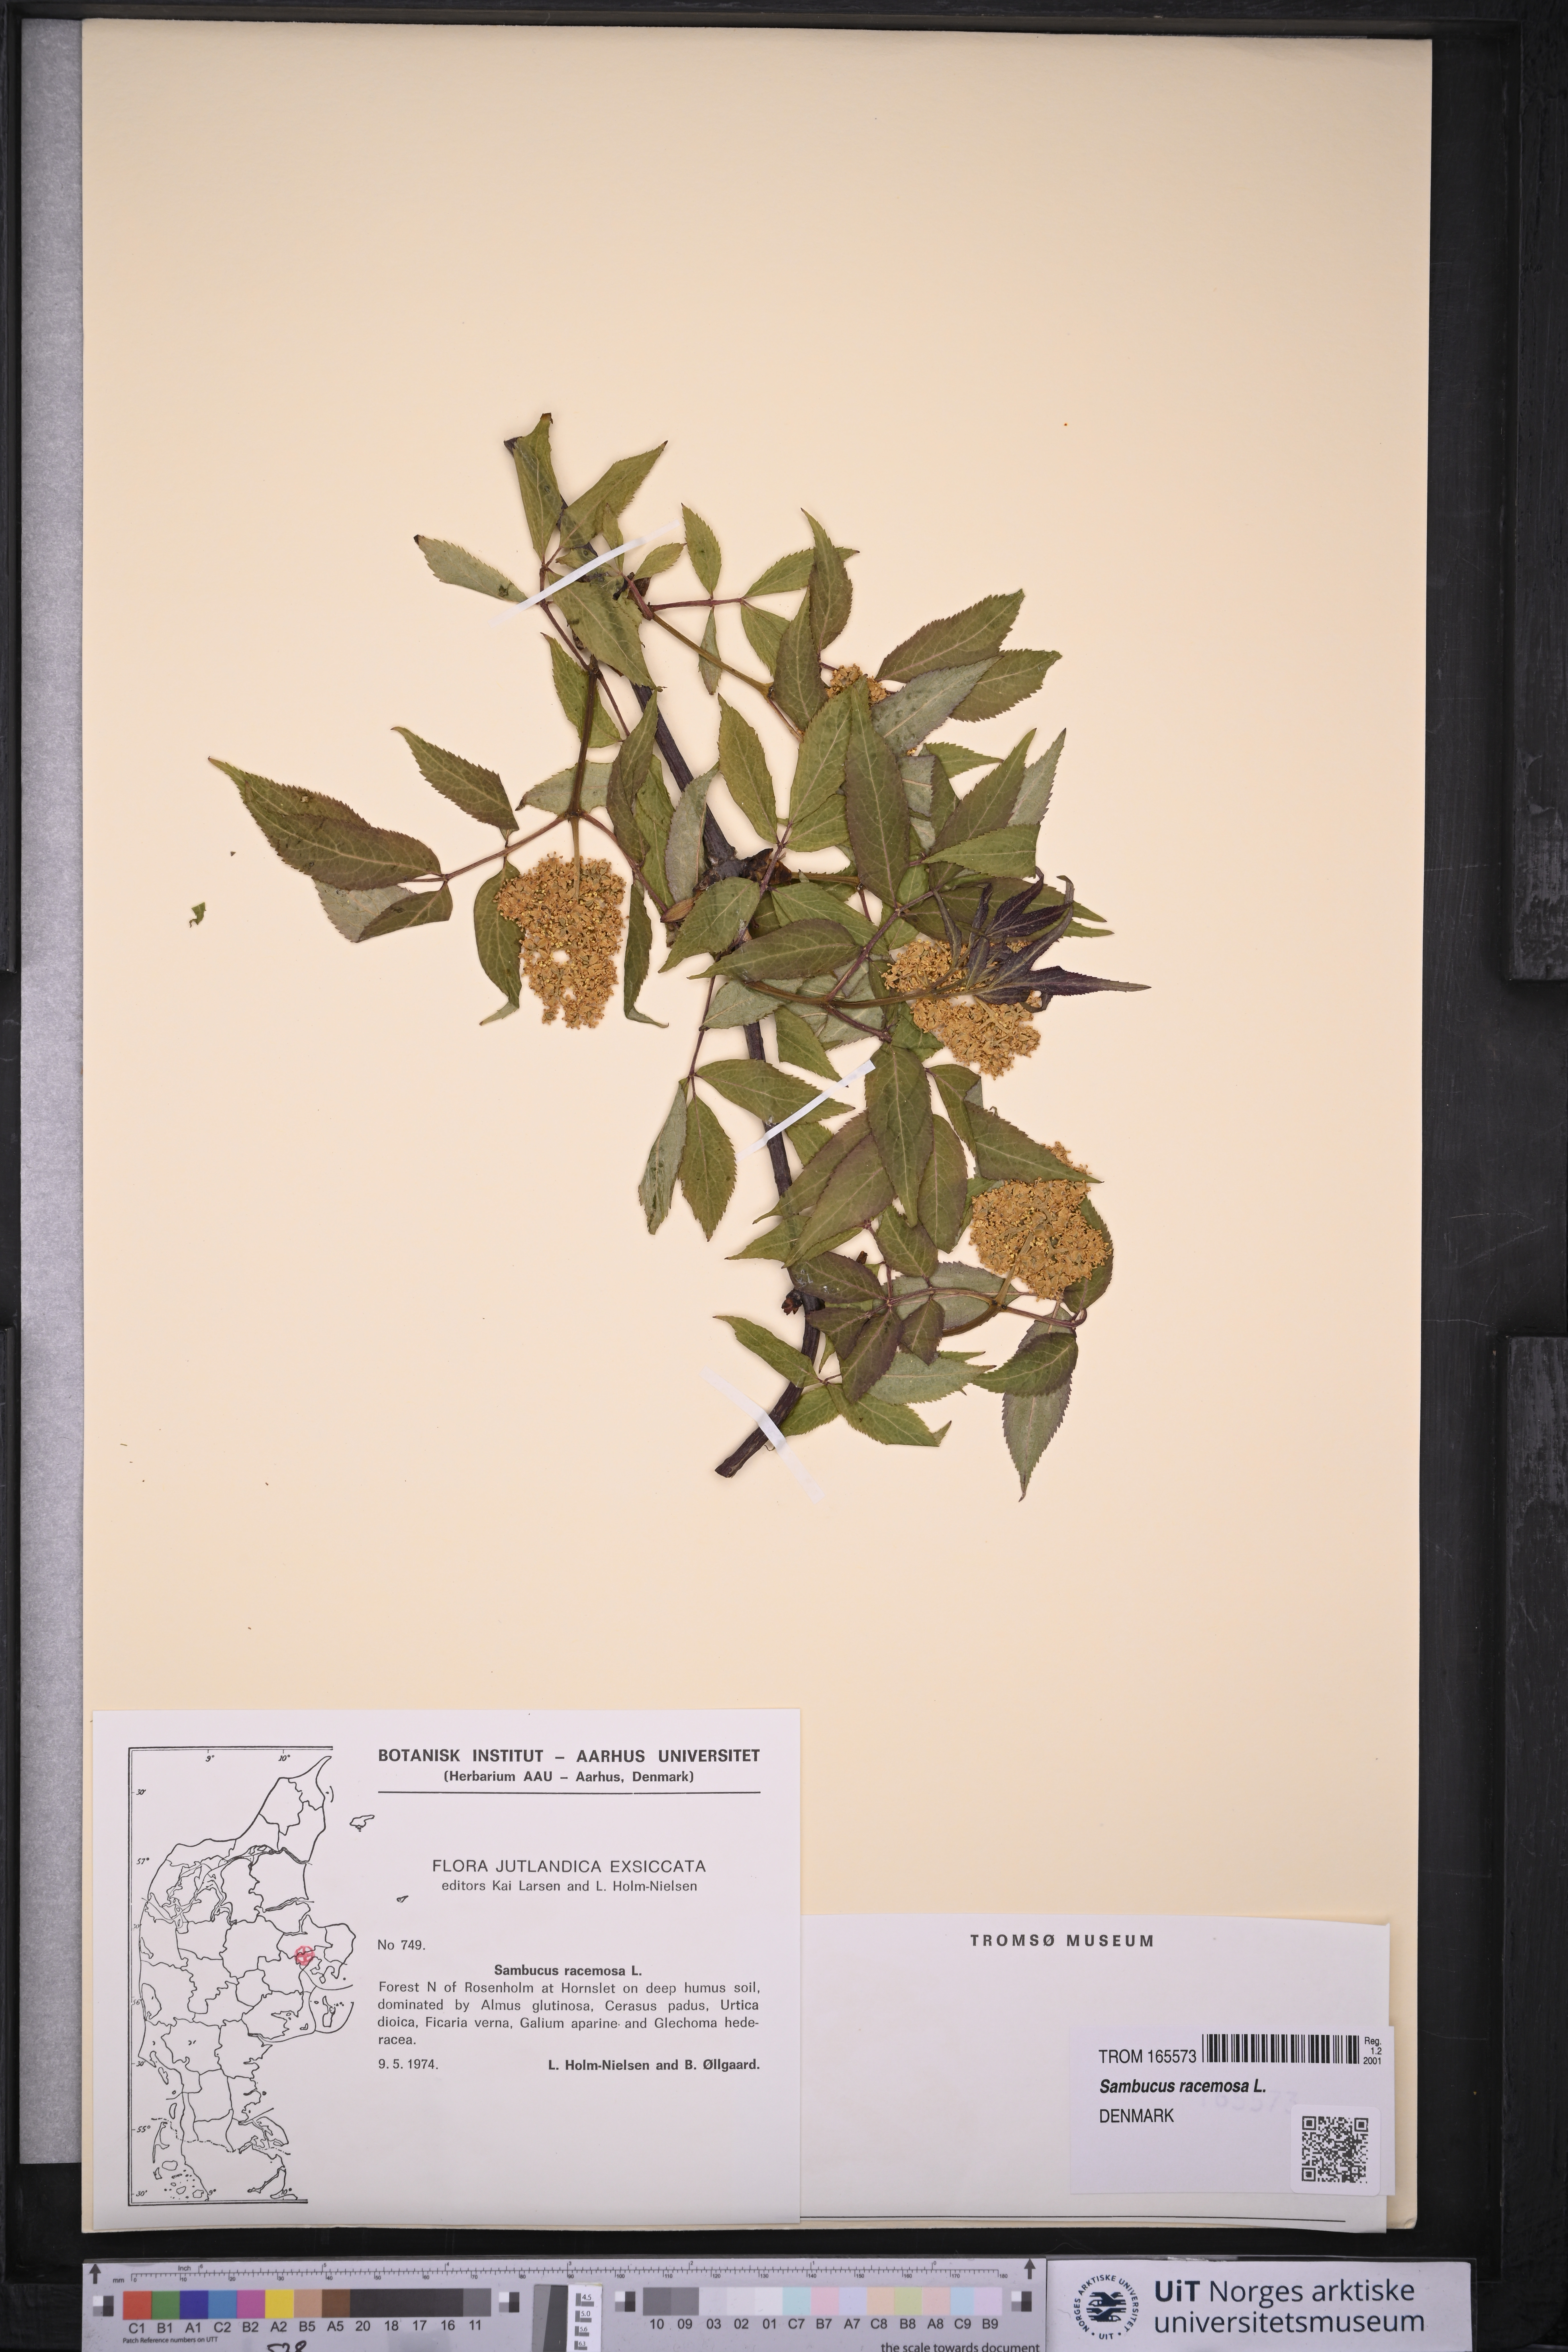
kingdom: Plantae
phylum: Tracheophyta
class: Magnoliopsida
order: Dipsacales
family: Viburnaceae
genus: Sambucus
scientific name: Sambucus racemosa
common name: Red-berried elder
